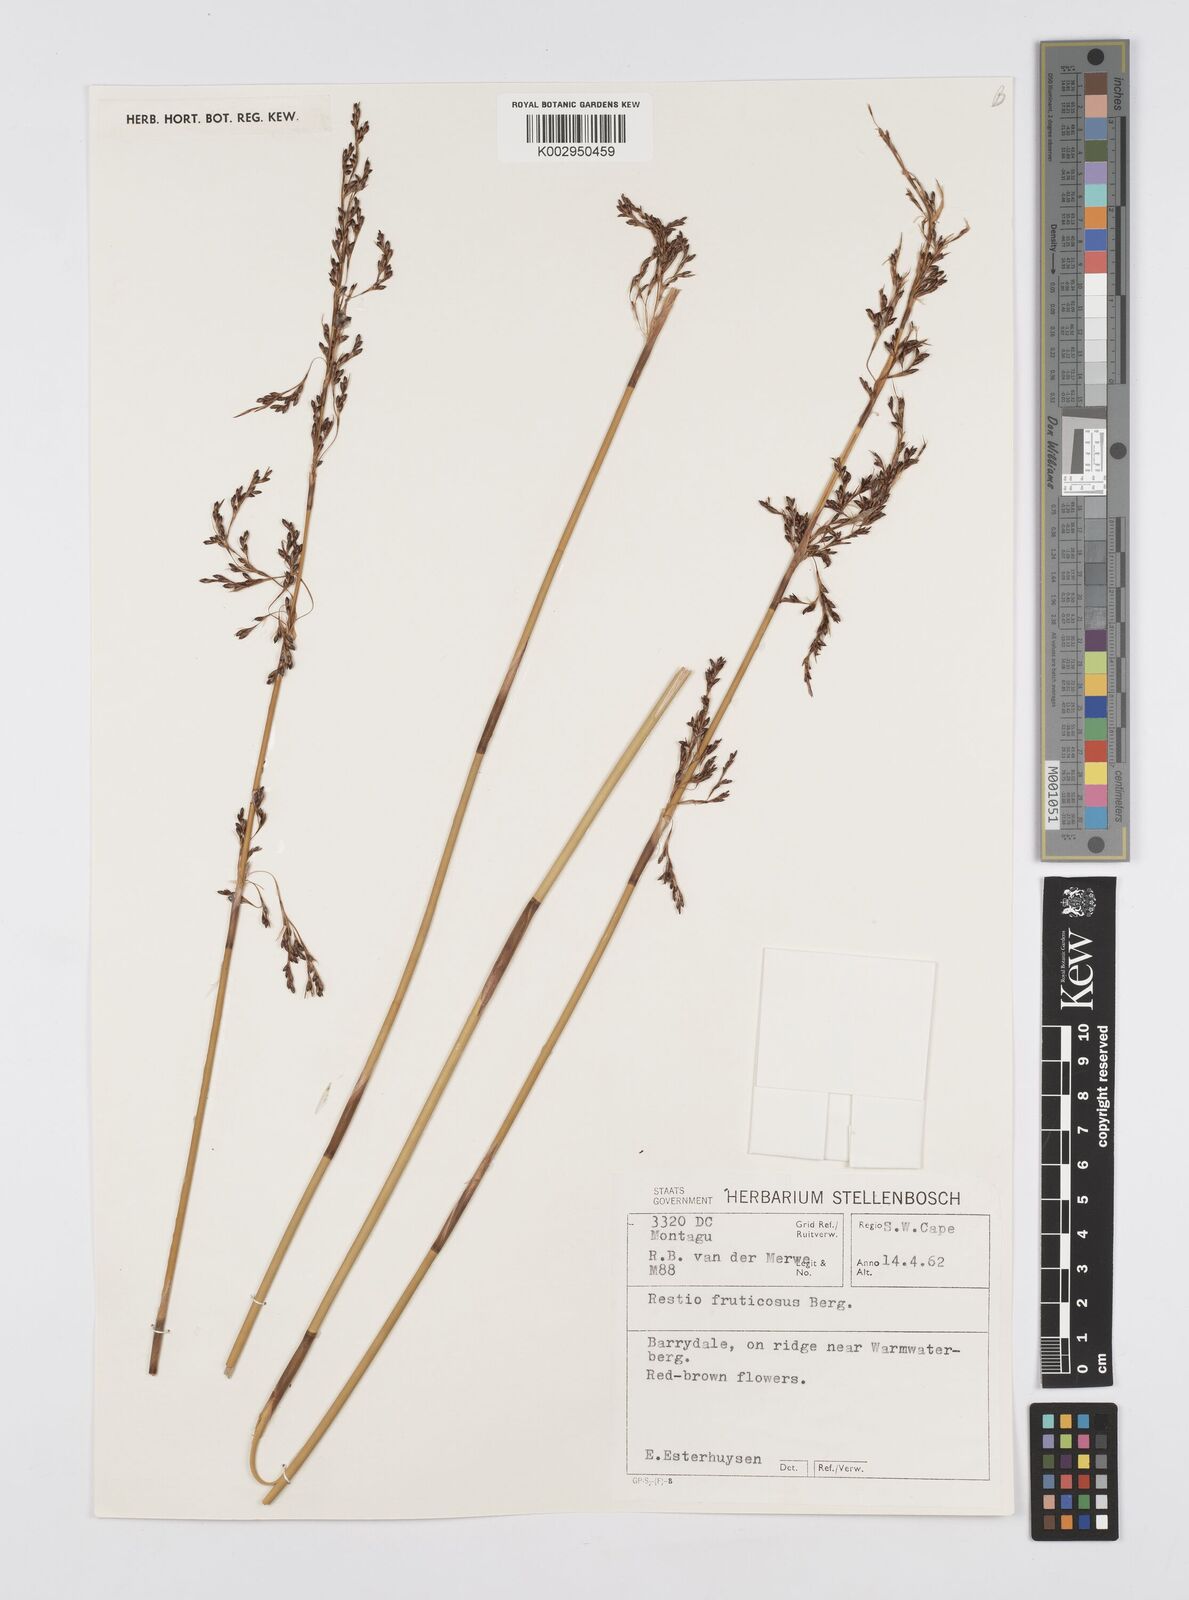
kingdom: Plantae
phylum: Tracheophyta
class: Liliopsida
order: Poales
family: Restionaceae
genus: Rhodocoma
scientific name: Rhodocoma fruticosa
